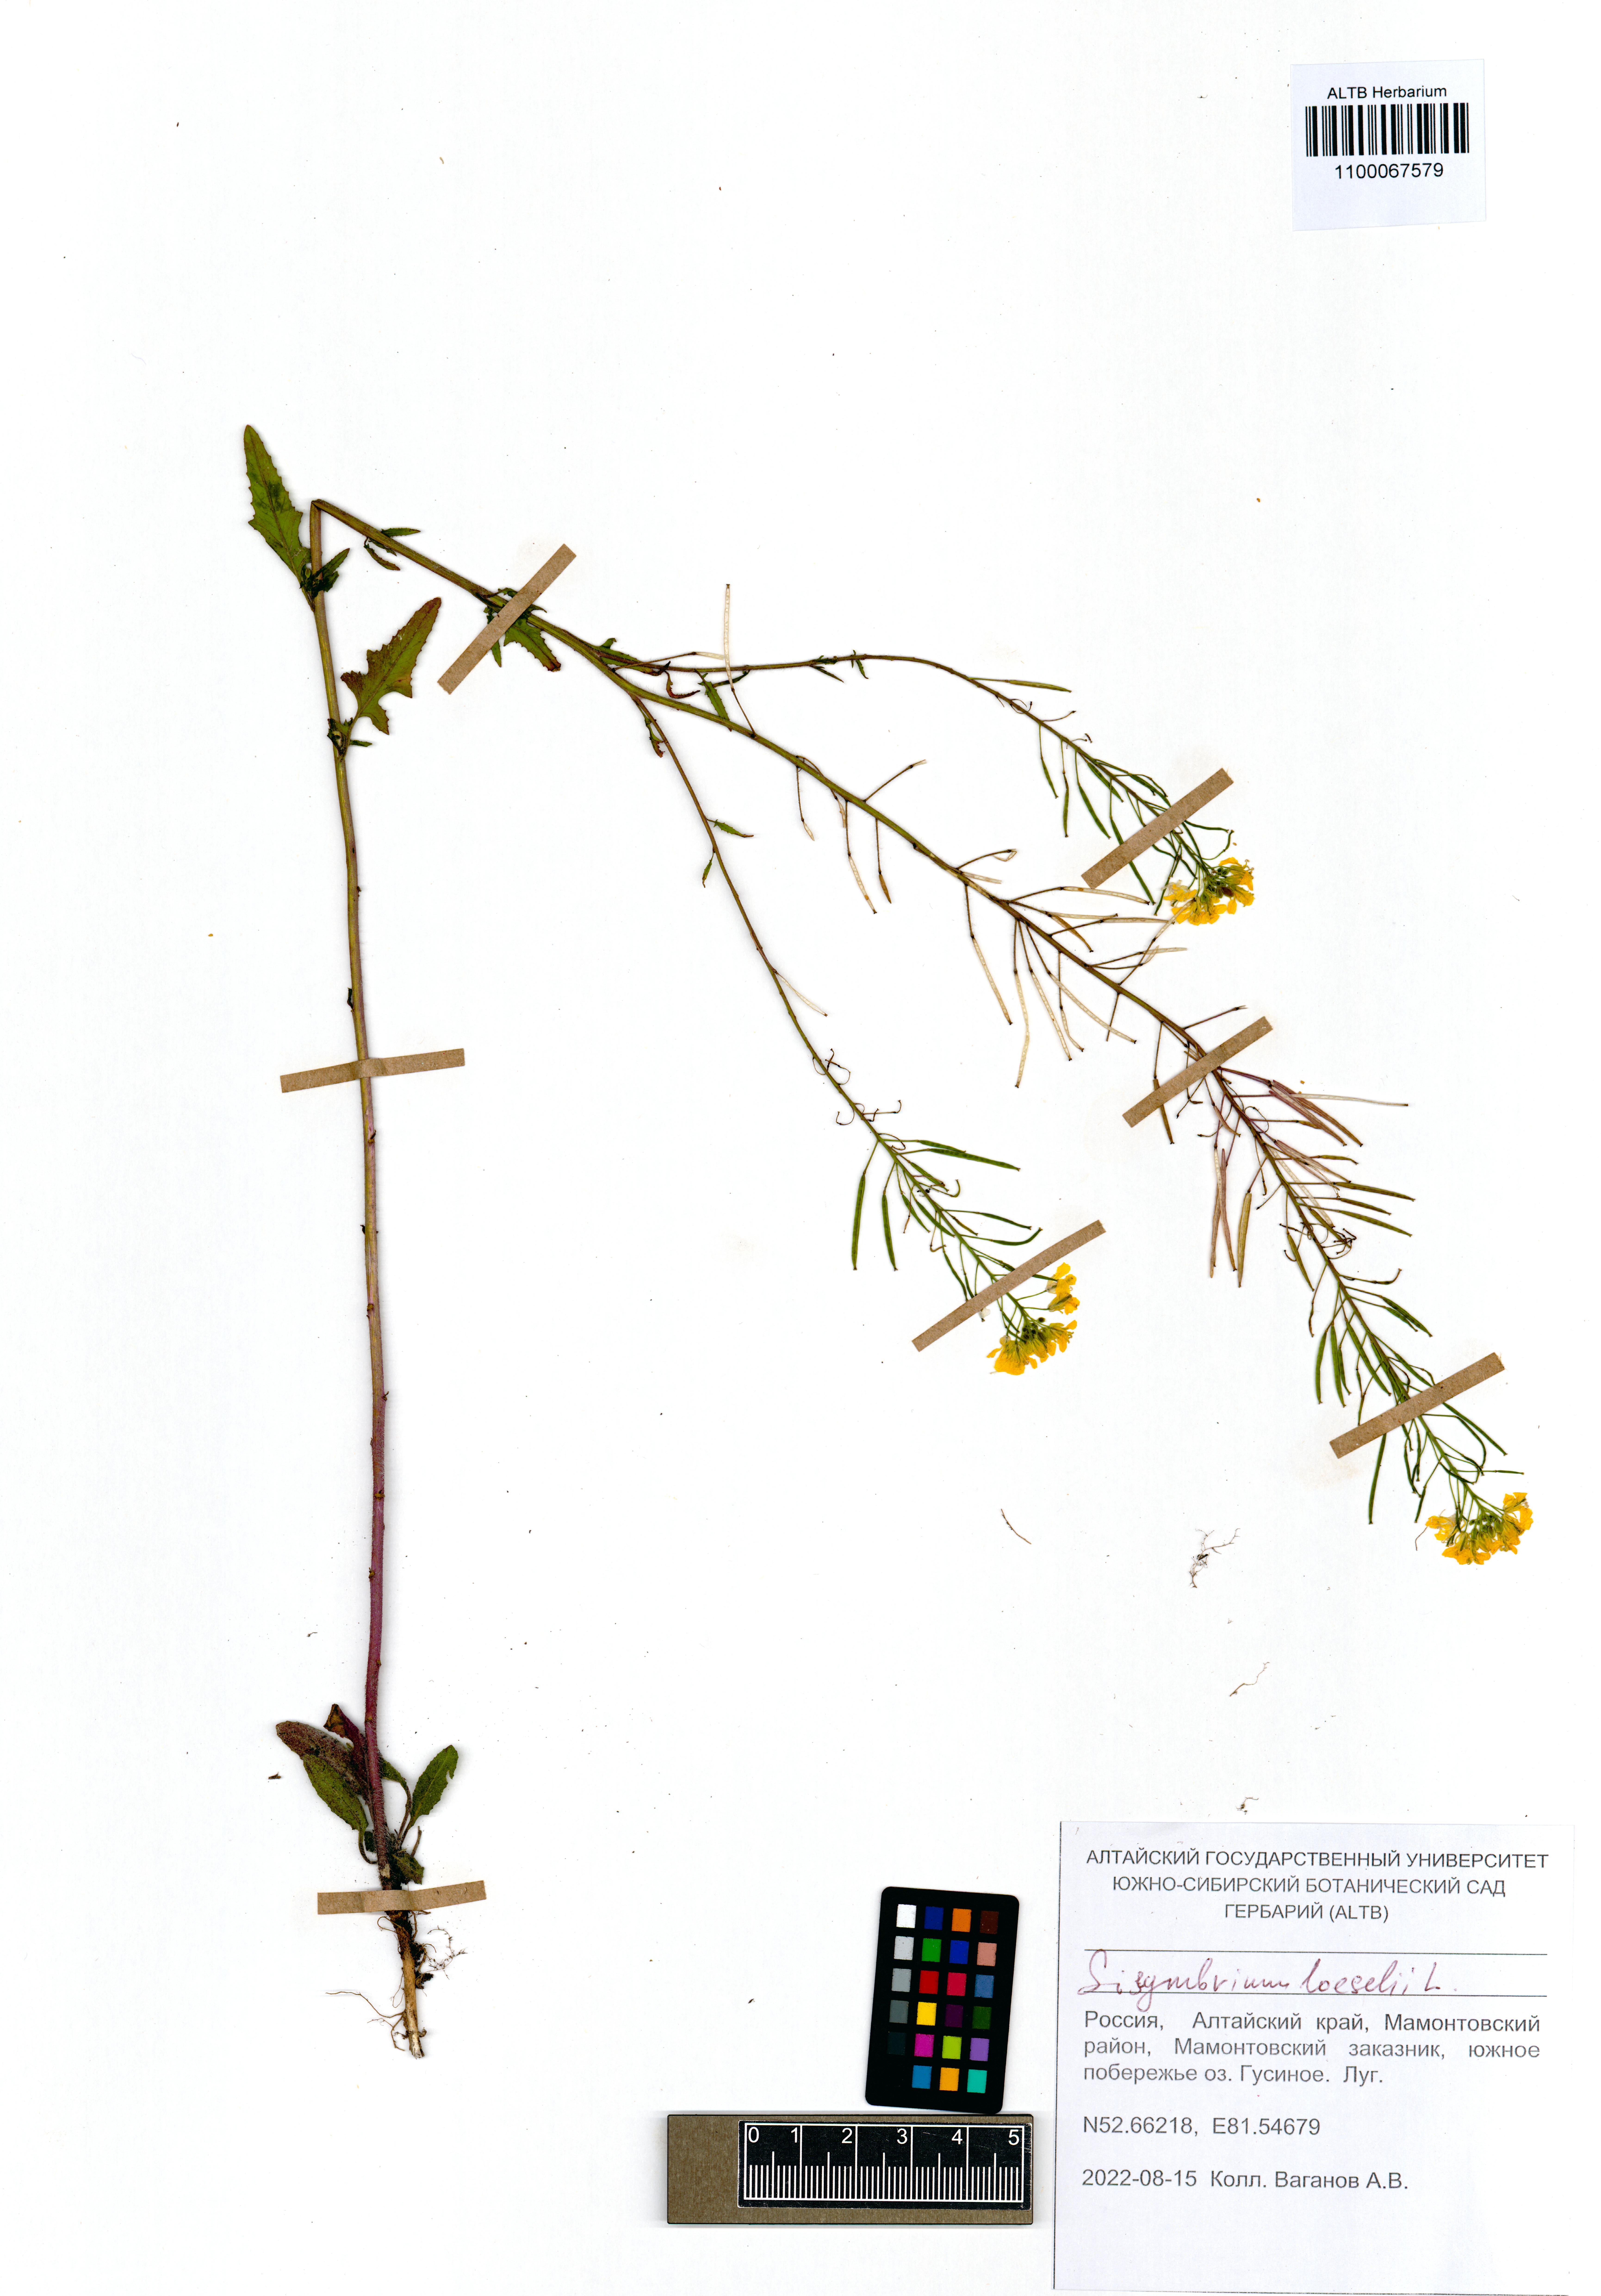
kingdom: Plantae
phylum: Tracheophyta
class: Magnoliopsida
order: Brassicales
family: Brassicaceae
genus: Sisymbrium
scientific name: Sisymbrium loeselii
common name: False london-rocket
